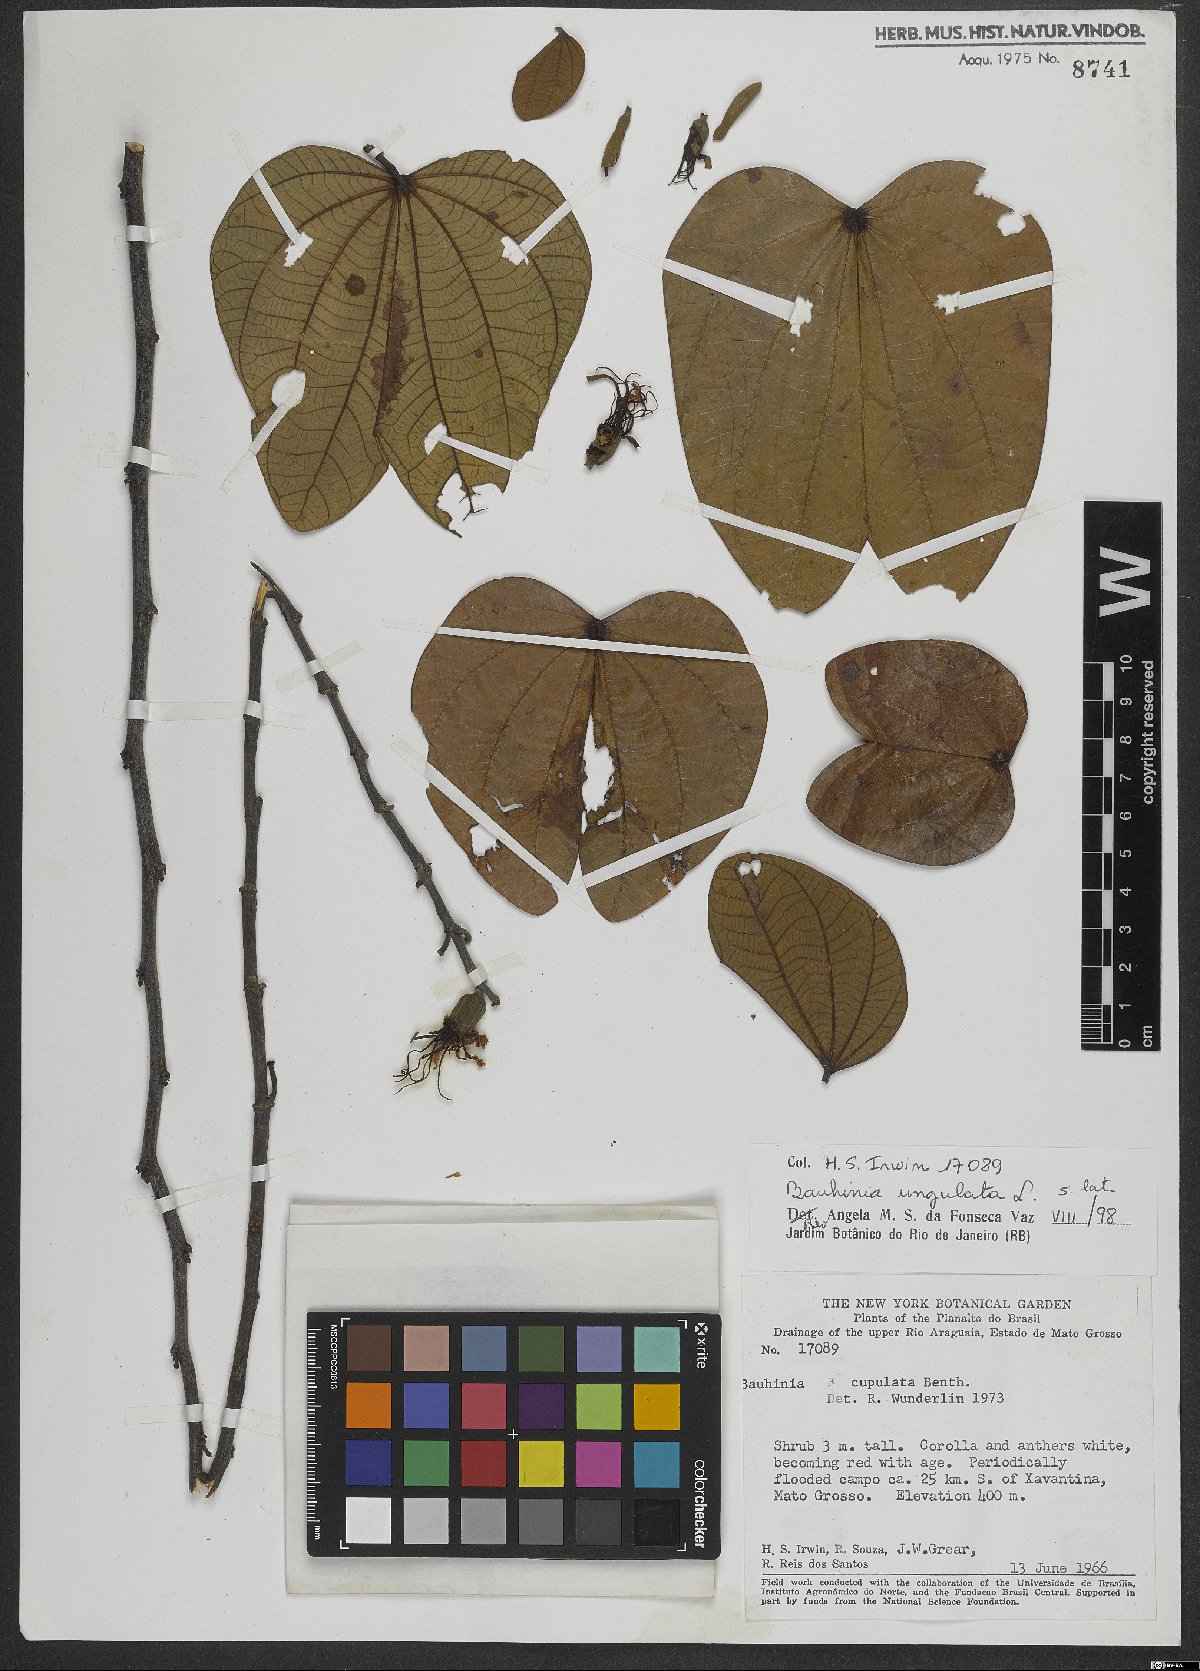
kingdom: Plantae
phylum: Tracheophyta
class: Magnoliopsida
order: Fabales
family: Fabaceae
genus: Bauhinia
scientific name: Bauhinia ungulata
